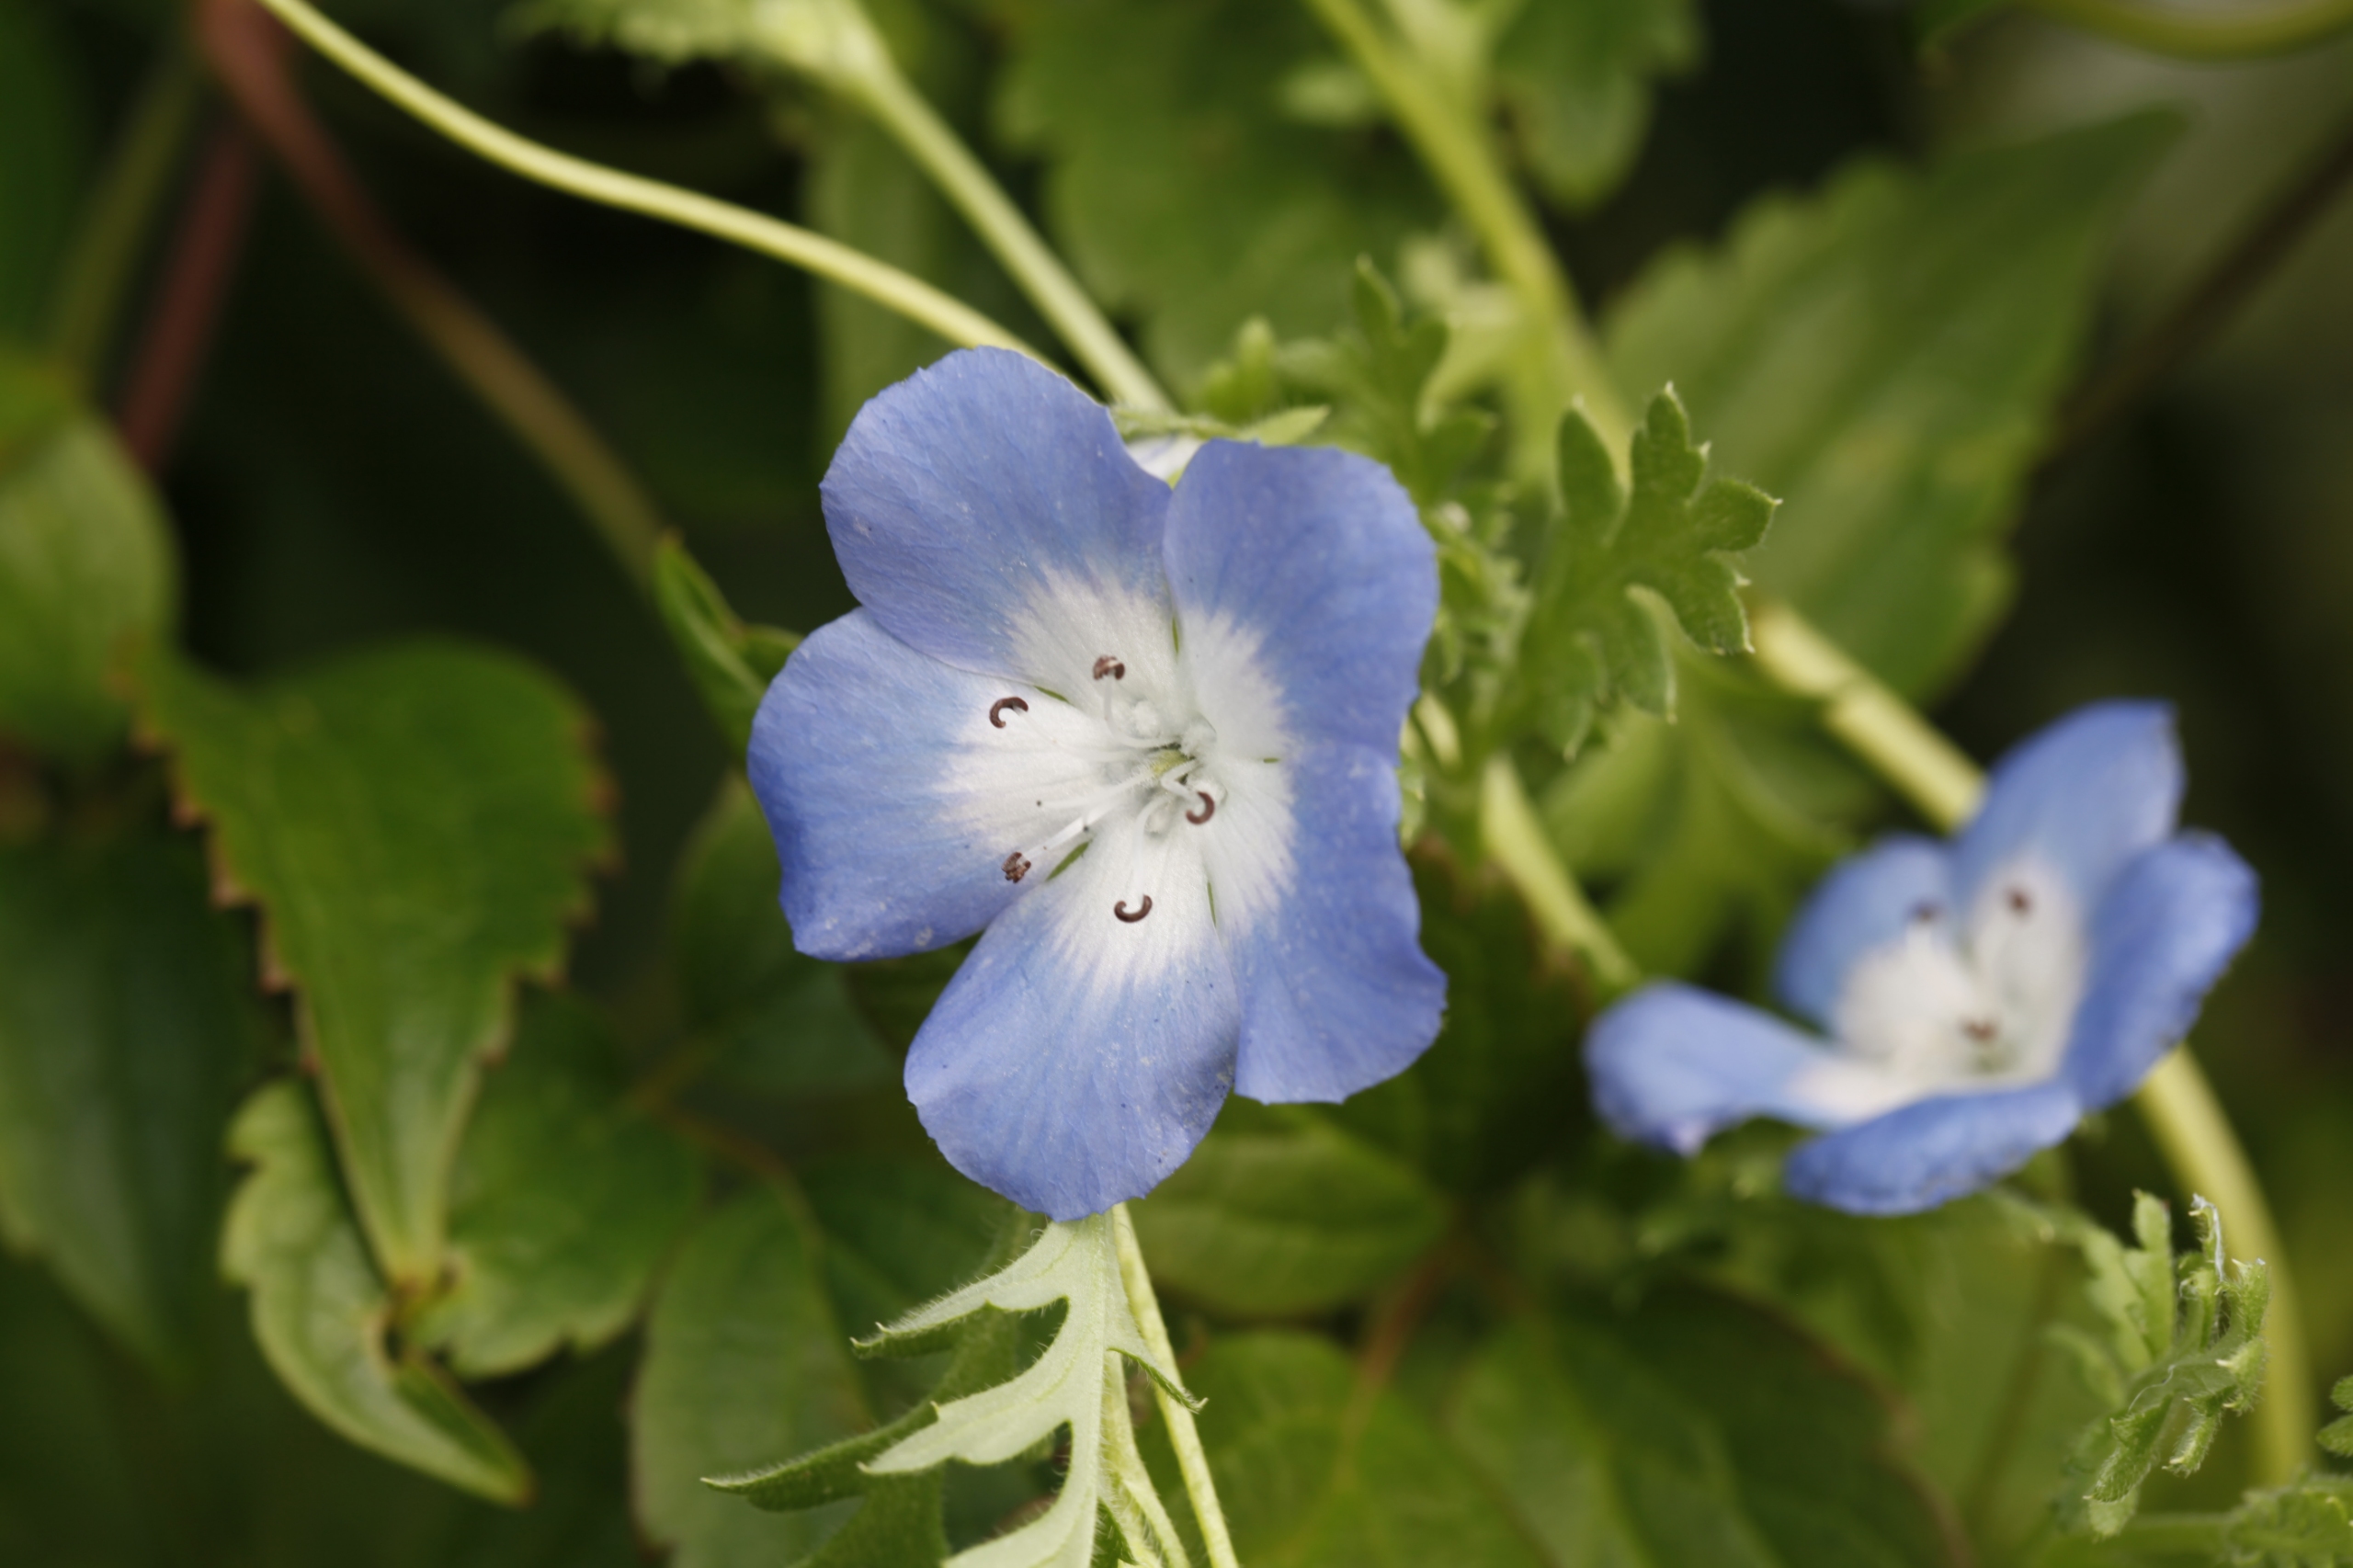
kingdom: Plantae
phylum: Tracheophyta
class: Magnoliopsida
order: Boraginales
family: Hydrophyllaceae
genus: Nemophila
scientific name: Nemophila menziesii
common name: Blå øjeblomst
